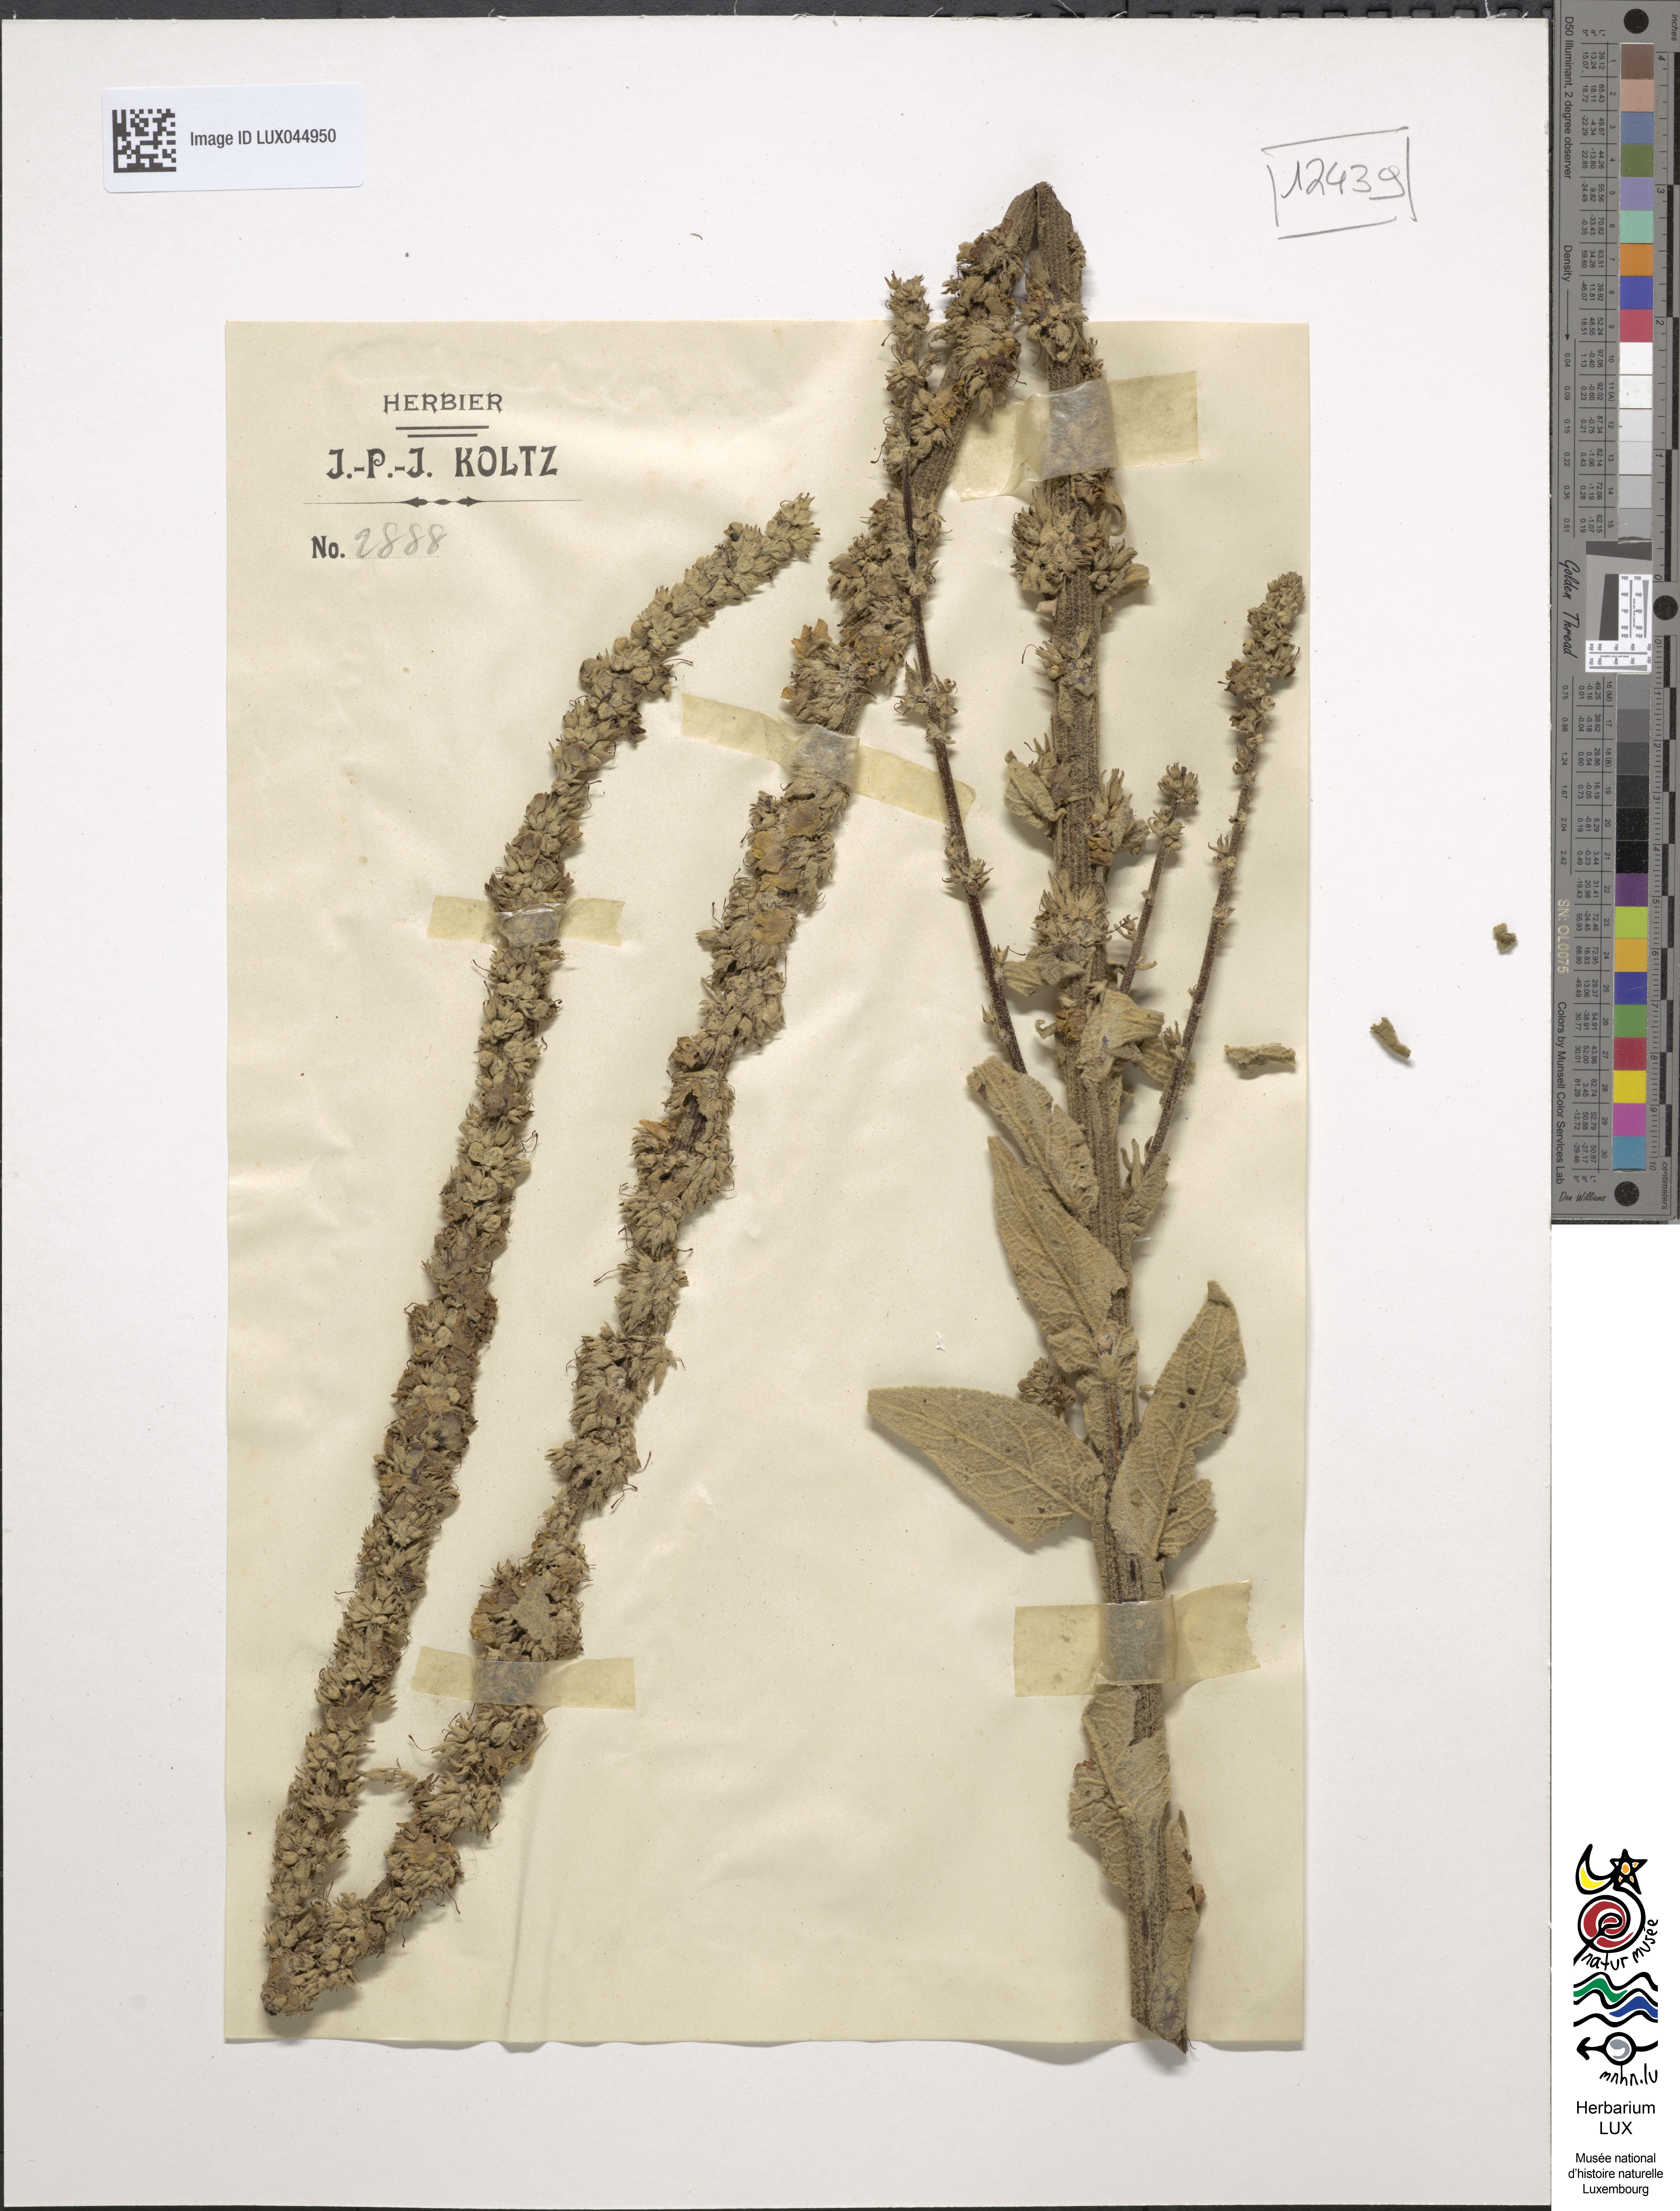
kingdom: Plantae
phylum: Tracheophyta
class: Magnoliopsida
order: Lamiales
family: Scrophulariaceae
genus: Verbascum
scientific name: Verbascum
